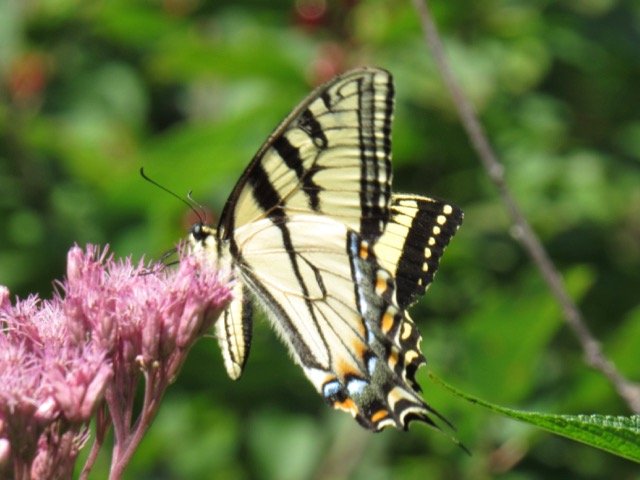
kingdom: Animalia
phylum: Arthropoda
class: Insecta
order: Lepidoptera
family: Papilionidae
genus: Pterourus
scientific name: Pterourus
